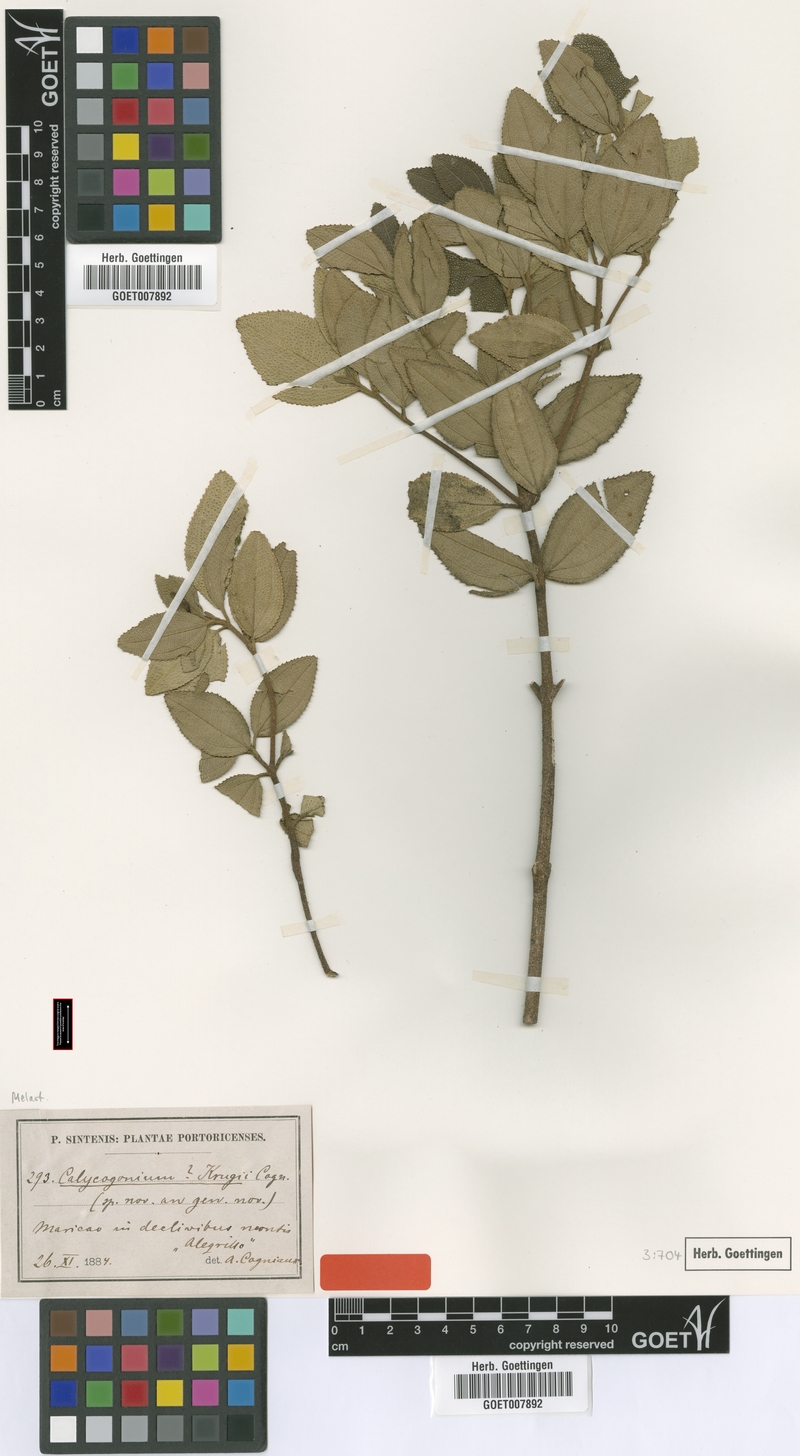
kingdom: Plantae
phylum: Tracheophyta
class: Magnoliopsida
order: Myrtales
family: Melastomataceae
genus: Miconia
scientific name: Miconia karlkrugii
